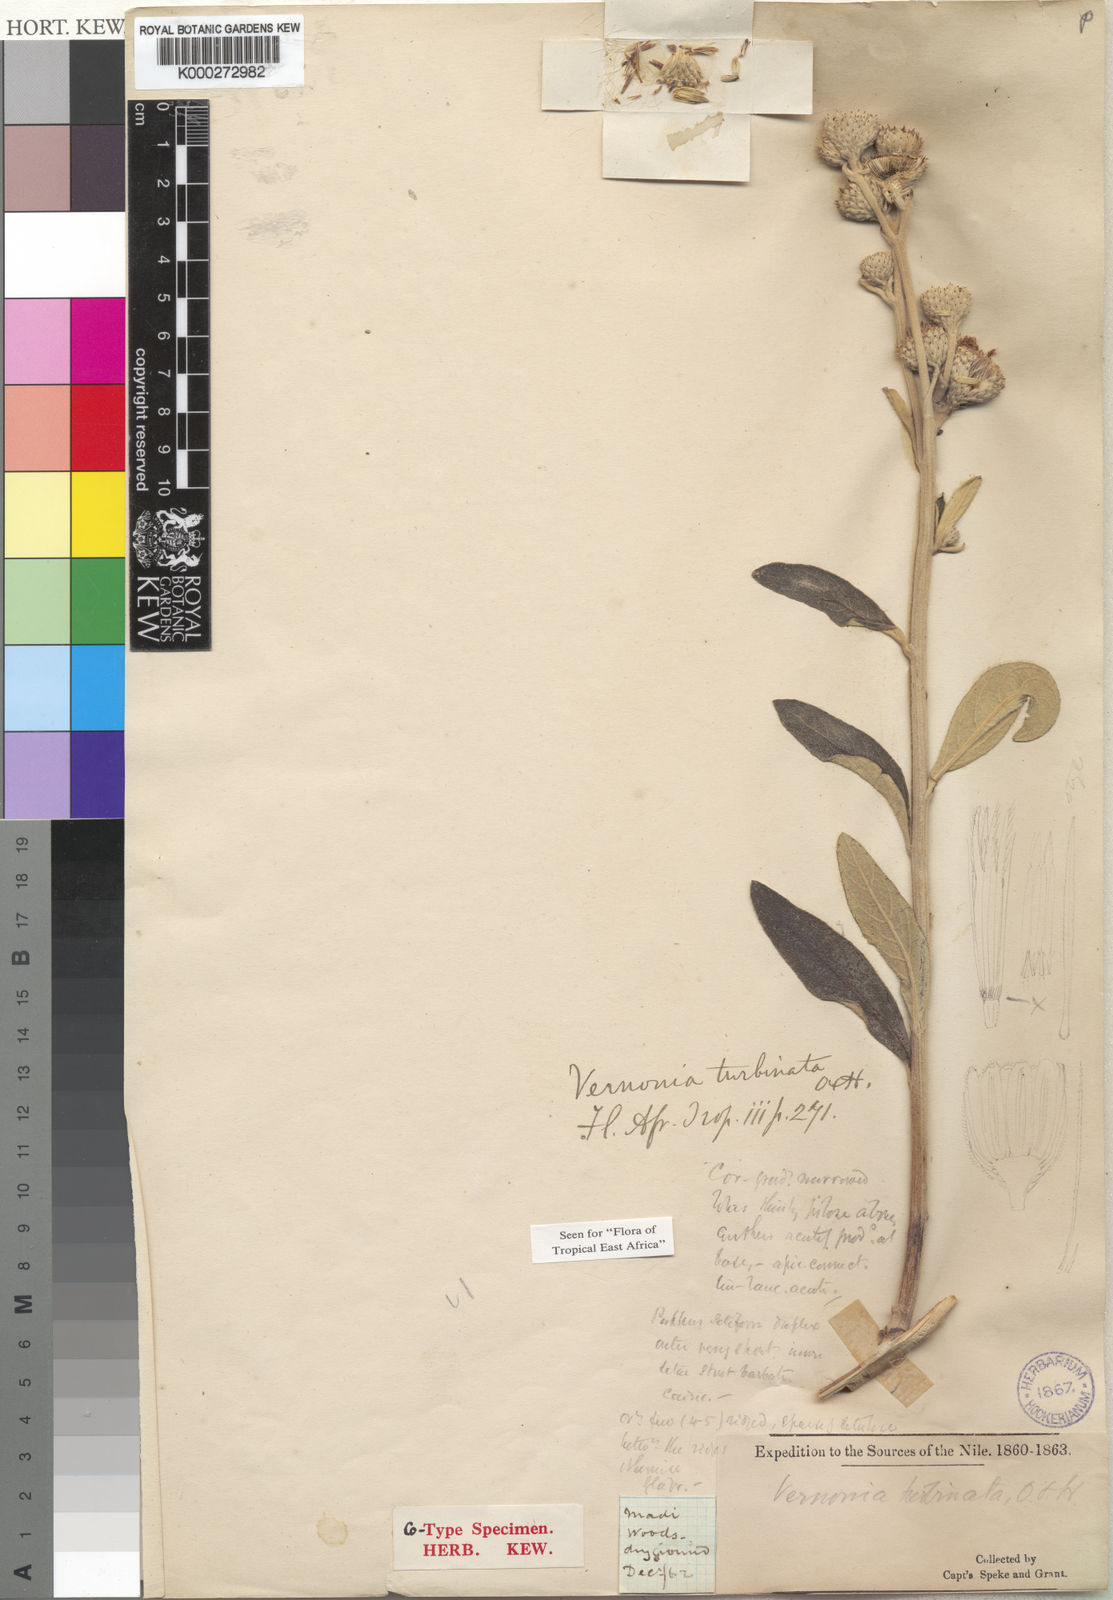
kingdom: Plantae
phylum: Tracheophyta
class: Magnoliopsida
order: Asterales
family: Asteraceae
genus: Orbivestus
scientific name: Orbivestus turbinata
